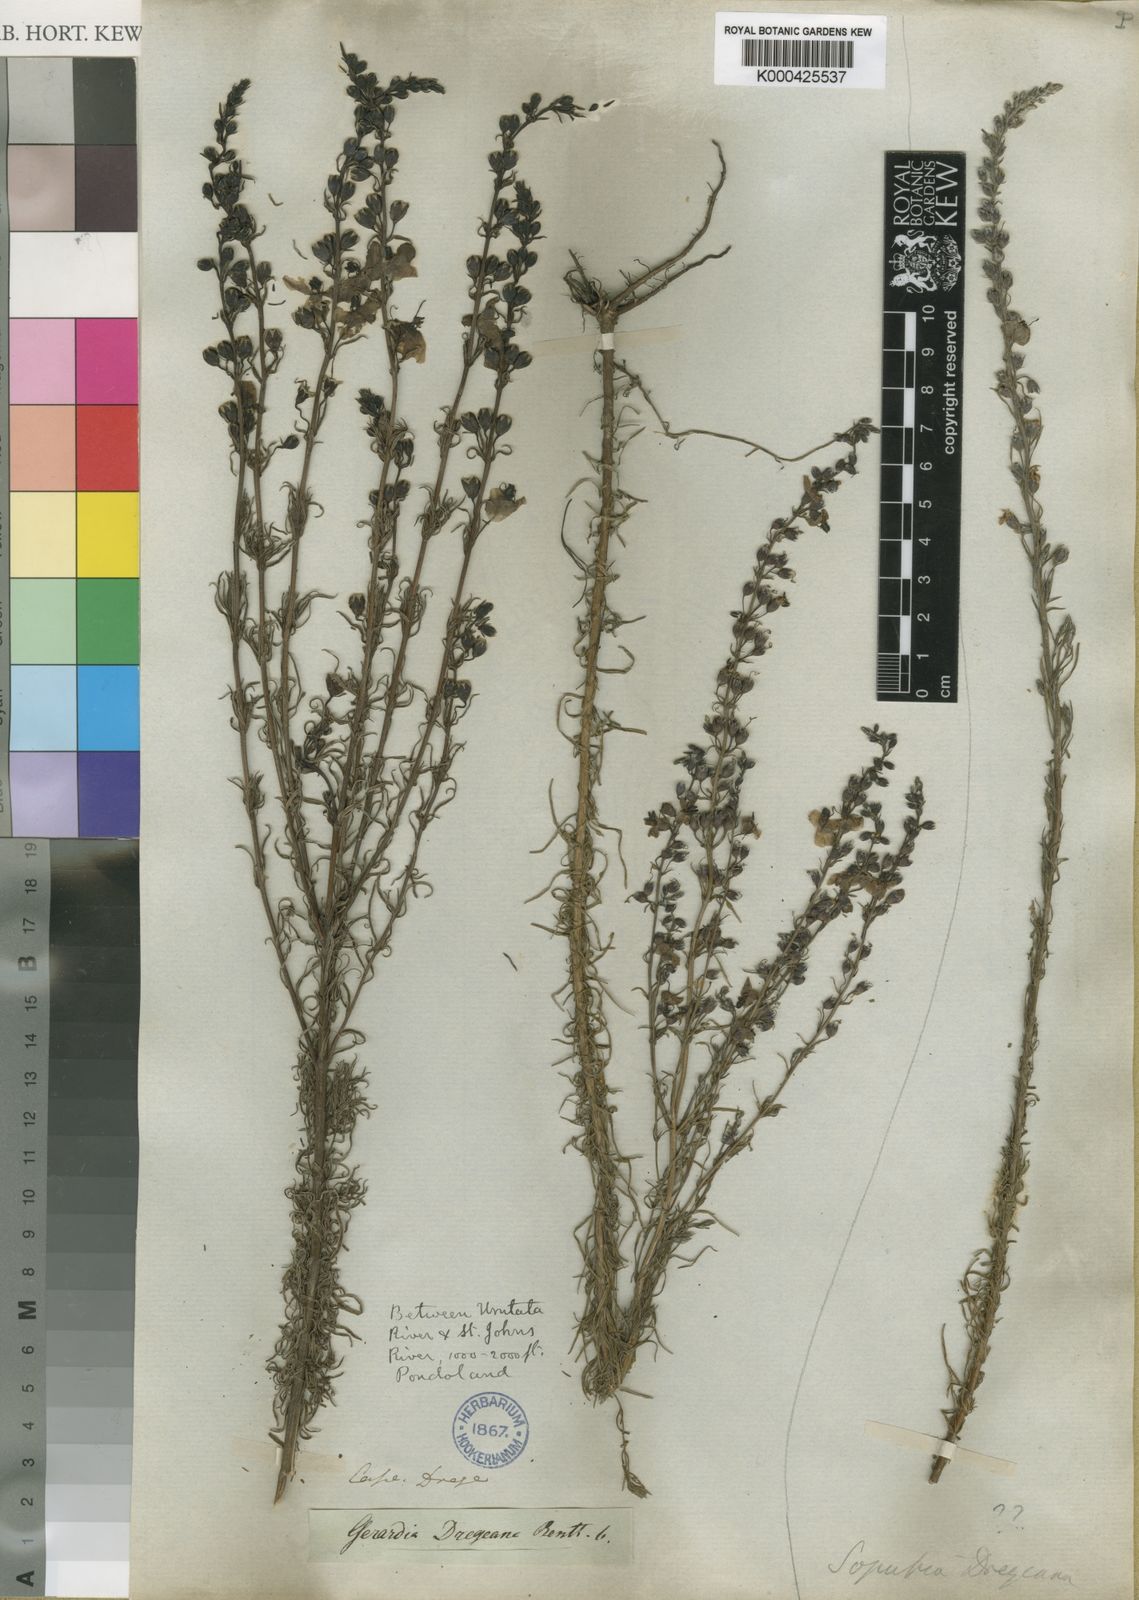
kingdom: Plantae
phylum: Tracheophyta
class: Magnoliopsida
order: Lamiales
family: Orobanchaceae
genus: Sopubia
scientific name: Sopubia simplex
